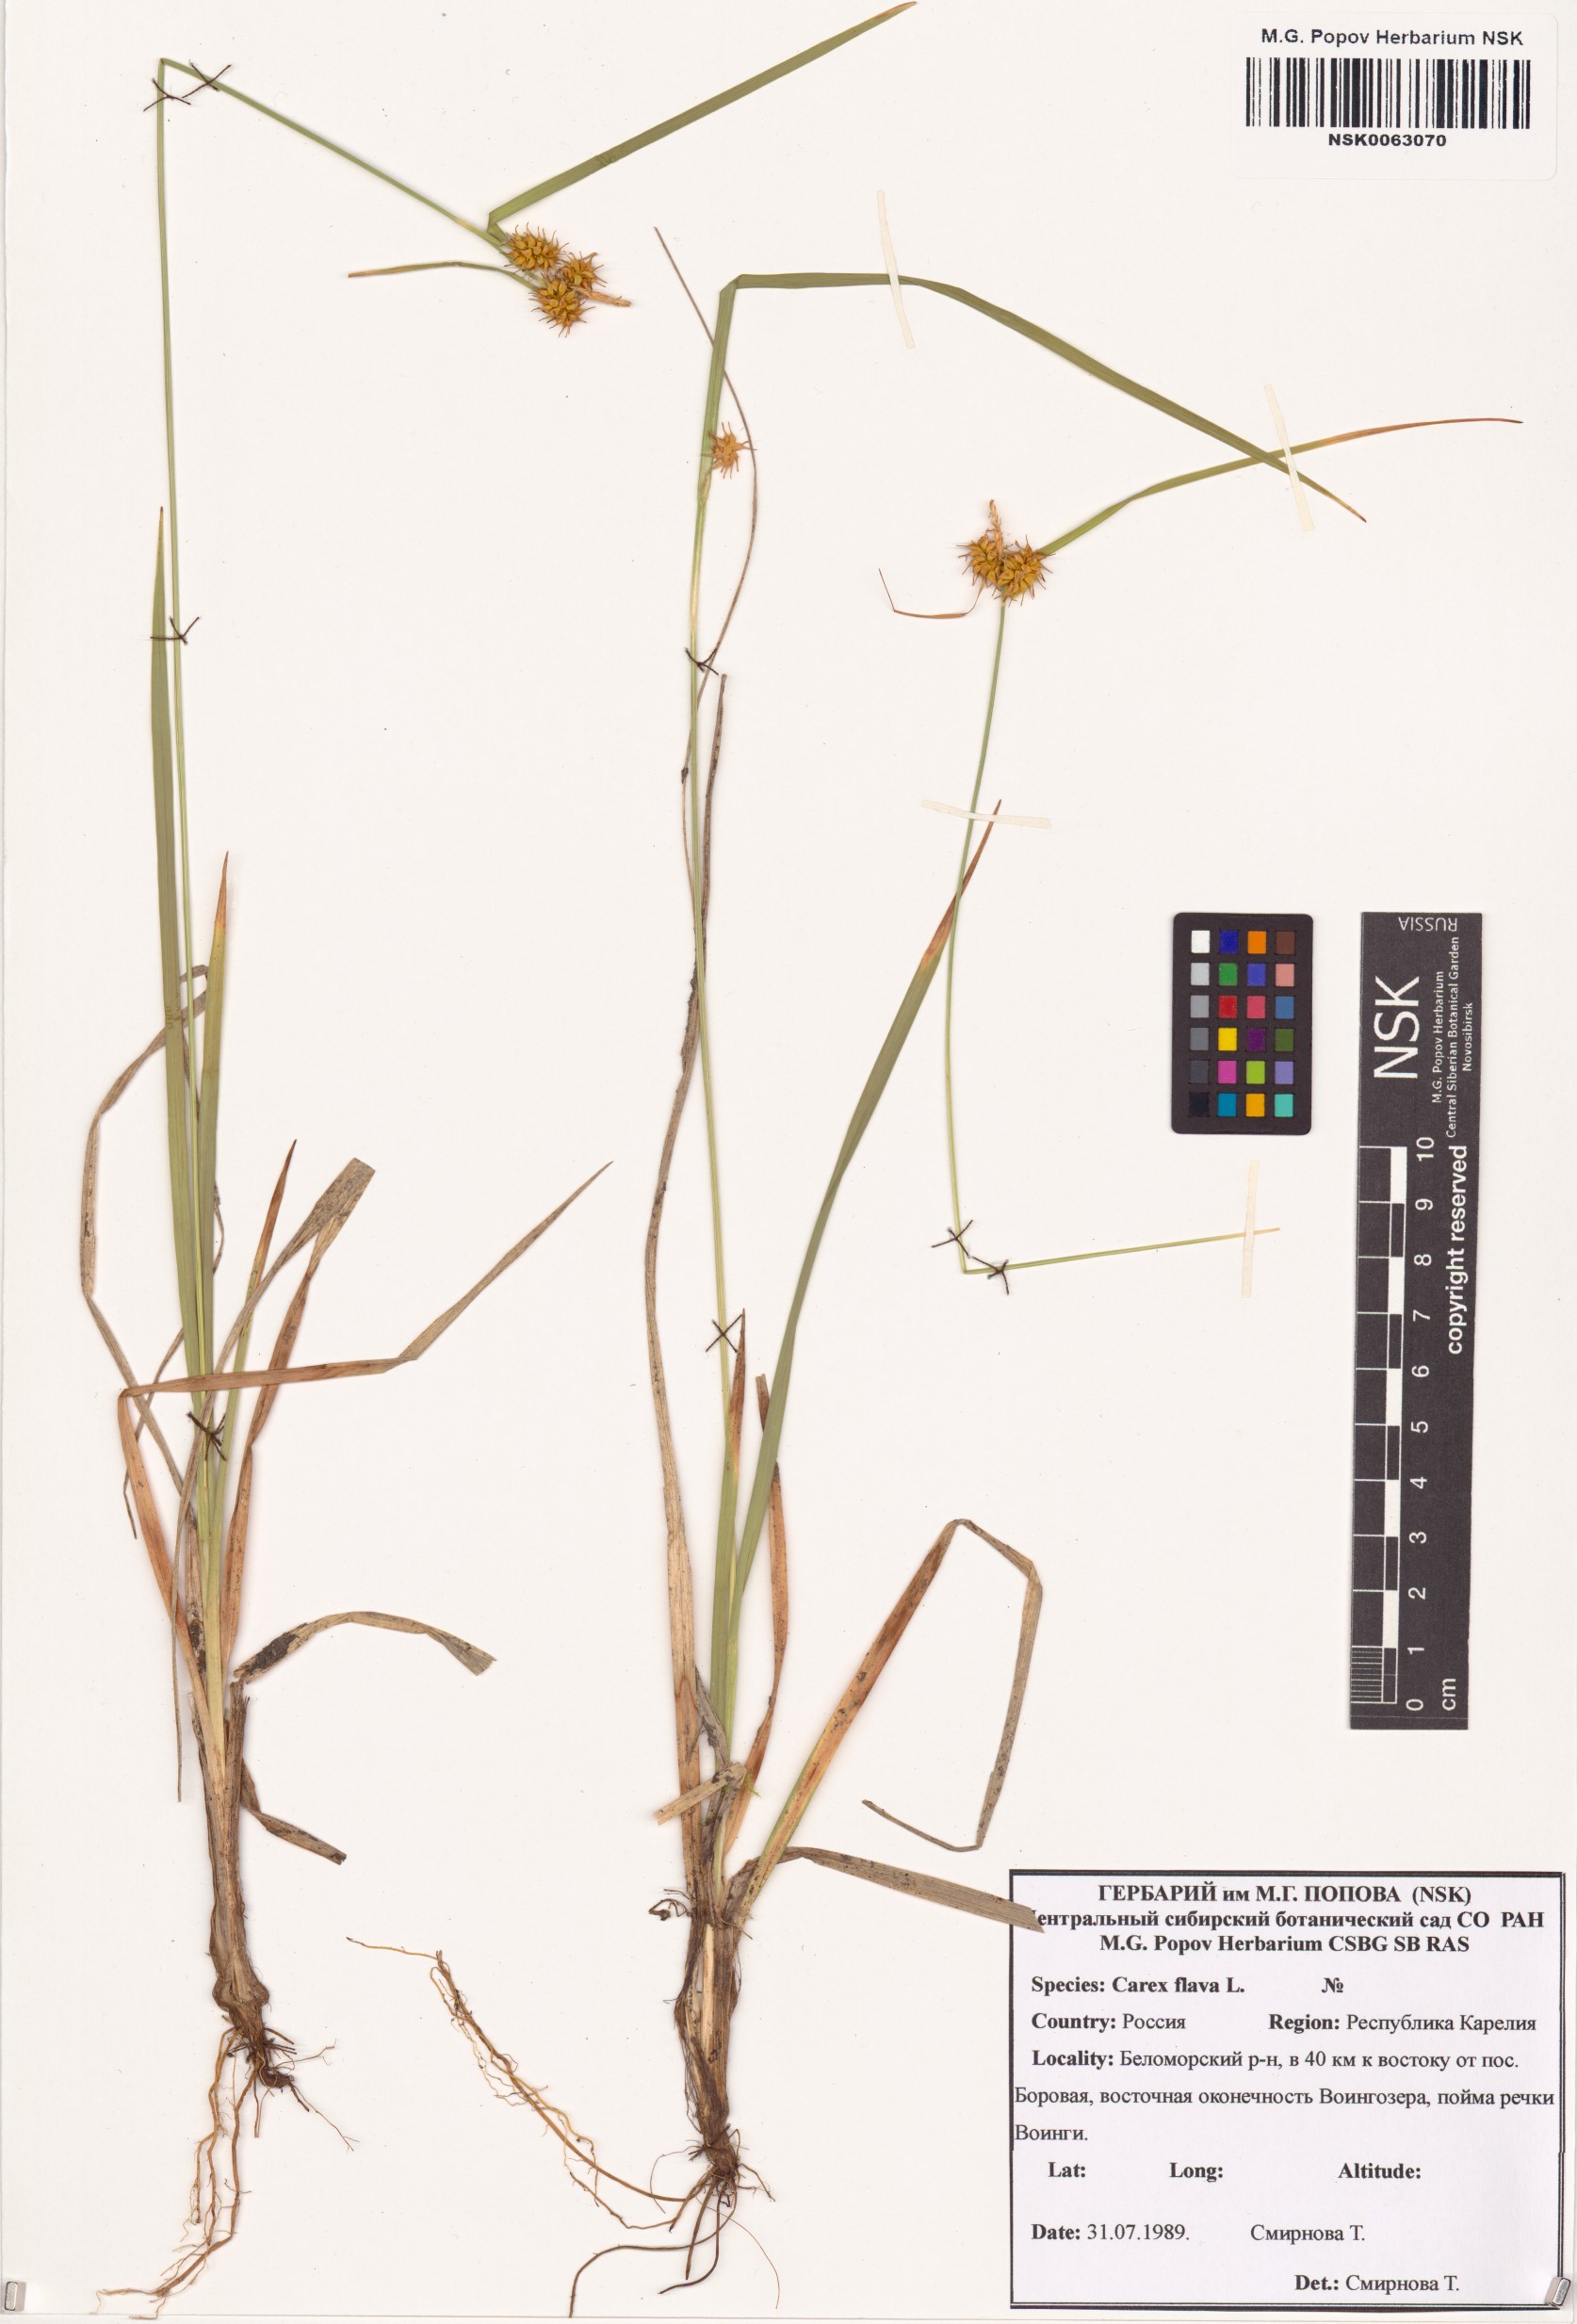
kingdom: Plantae
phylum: Tracheophyta
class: Liliopsida
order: Poales
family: Cyperaceae
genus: Carex
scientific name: Carex flava
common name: Large yellow-sedge
